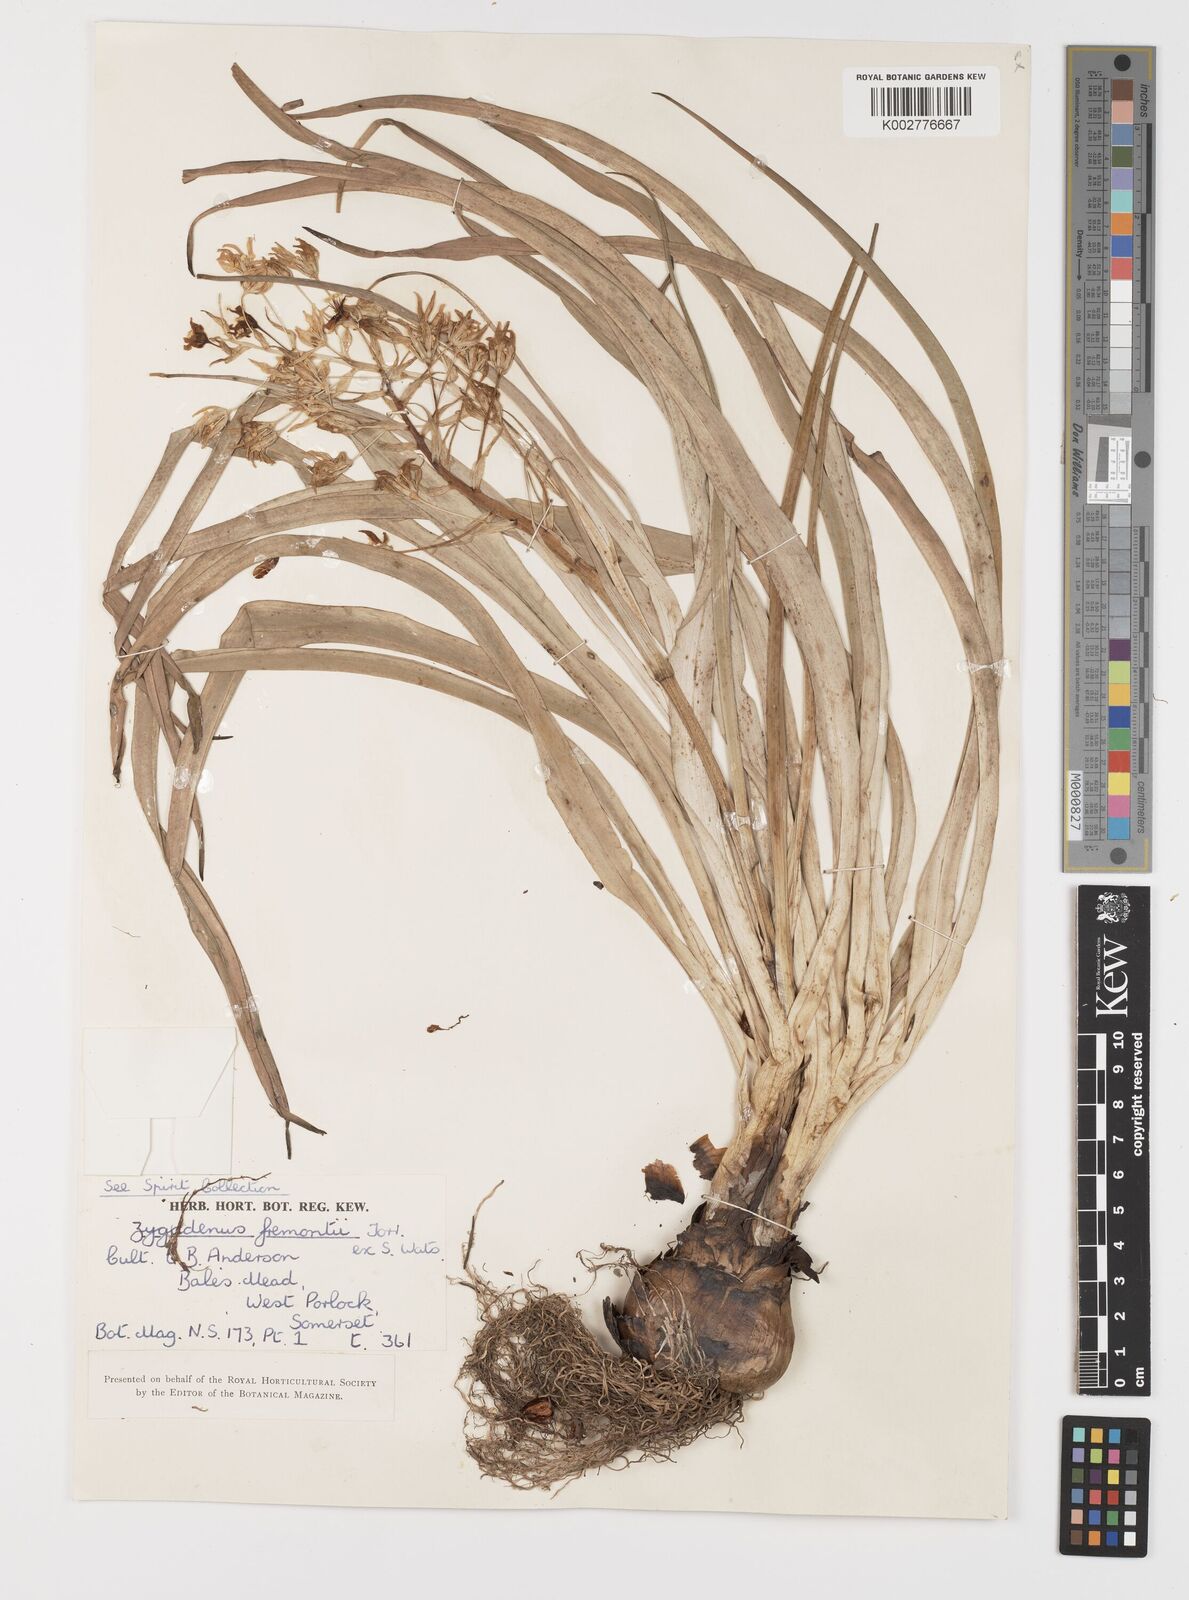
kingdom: Plantae
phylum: Tracheophyta
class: Liliopsida
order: Liliales
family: Melanthiaceae
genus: Toxicoscordion
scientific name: Toxicoscordion fremontii
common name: Fremont's death camas
